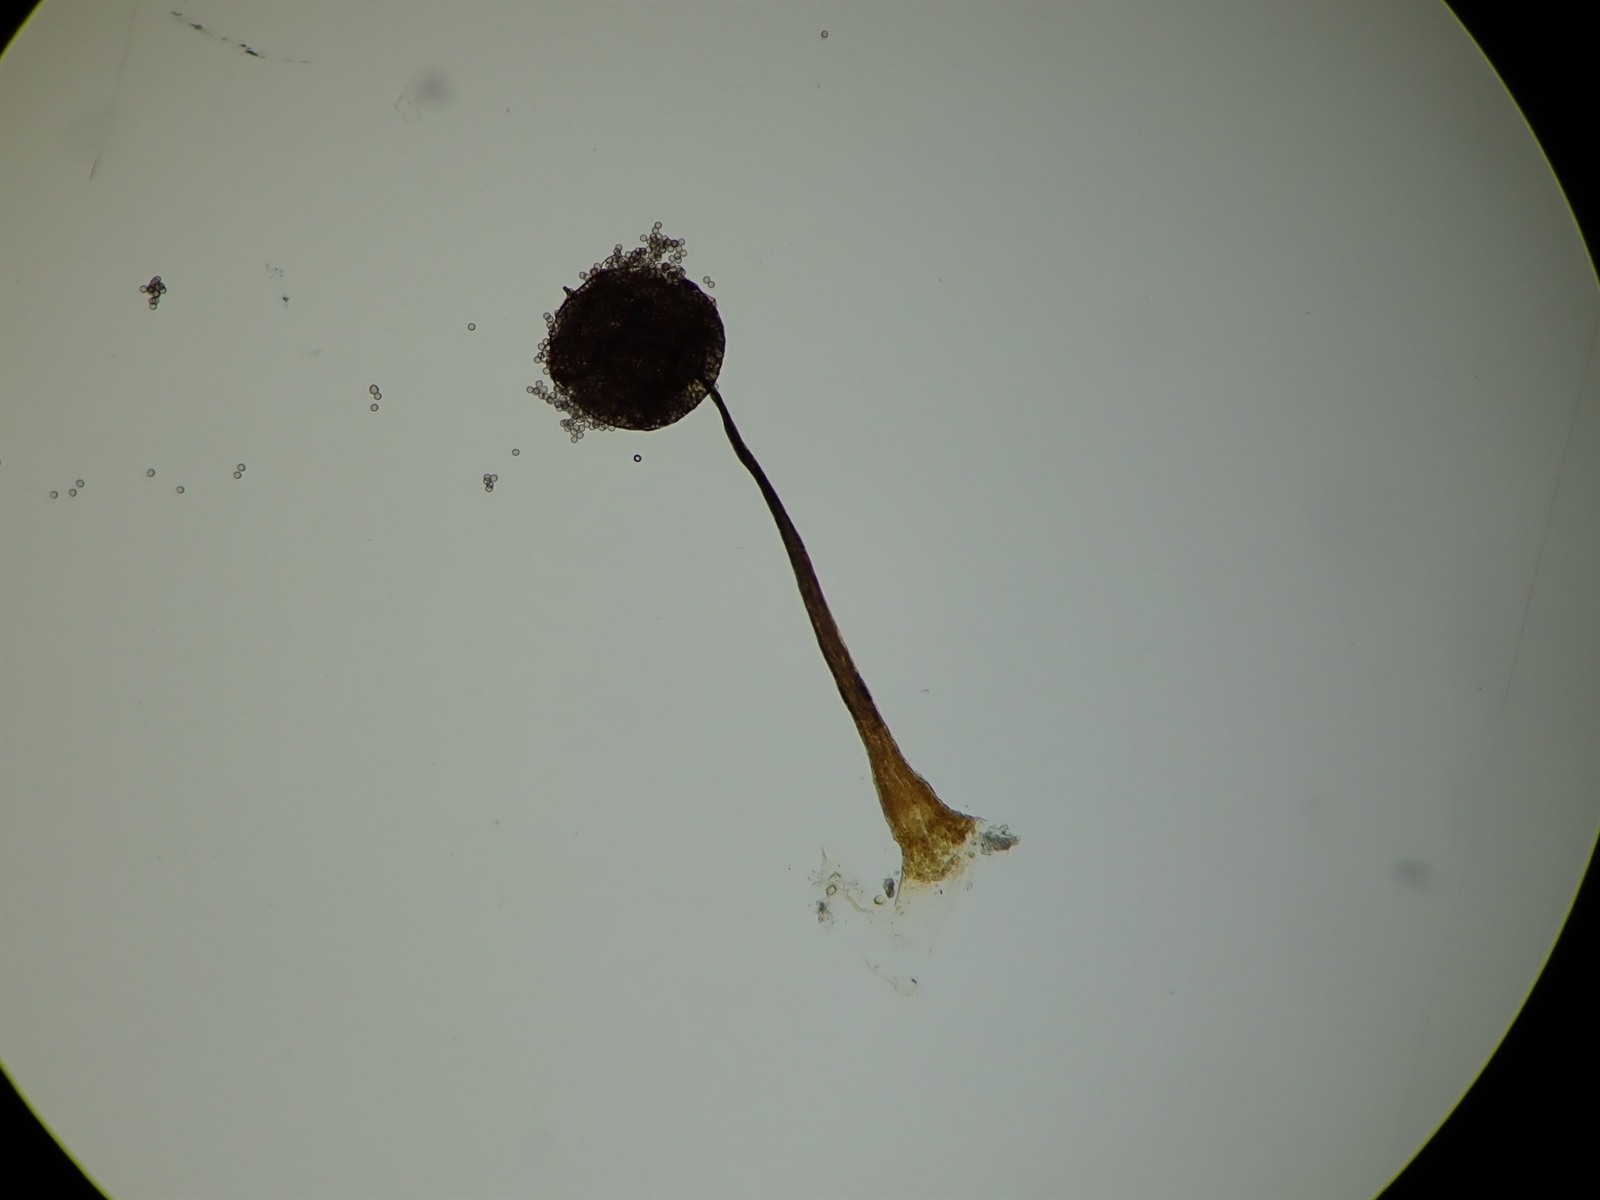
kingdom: Protozoa
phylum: Mycetozoa
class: Myxomycetes
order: Cribrariales
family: Cribrariaceae
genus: Cribraria
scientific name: Cribraria violacea
